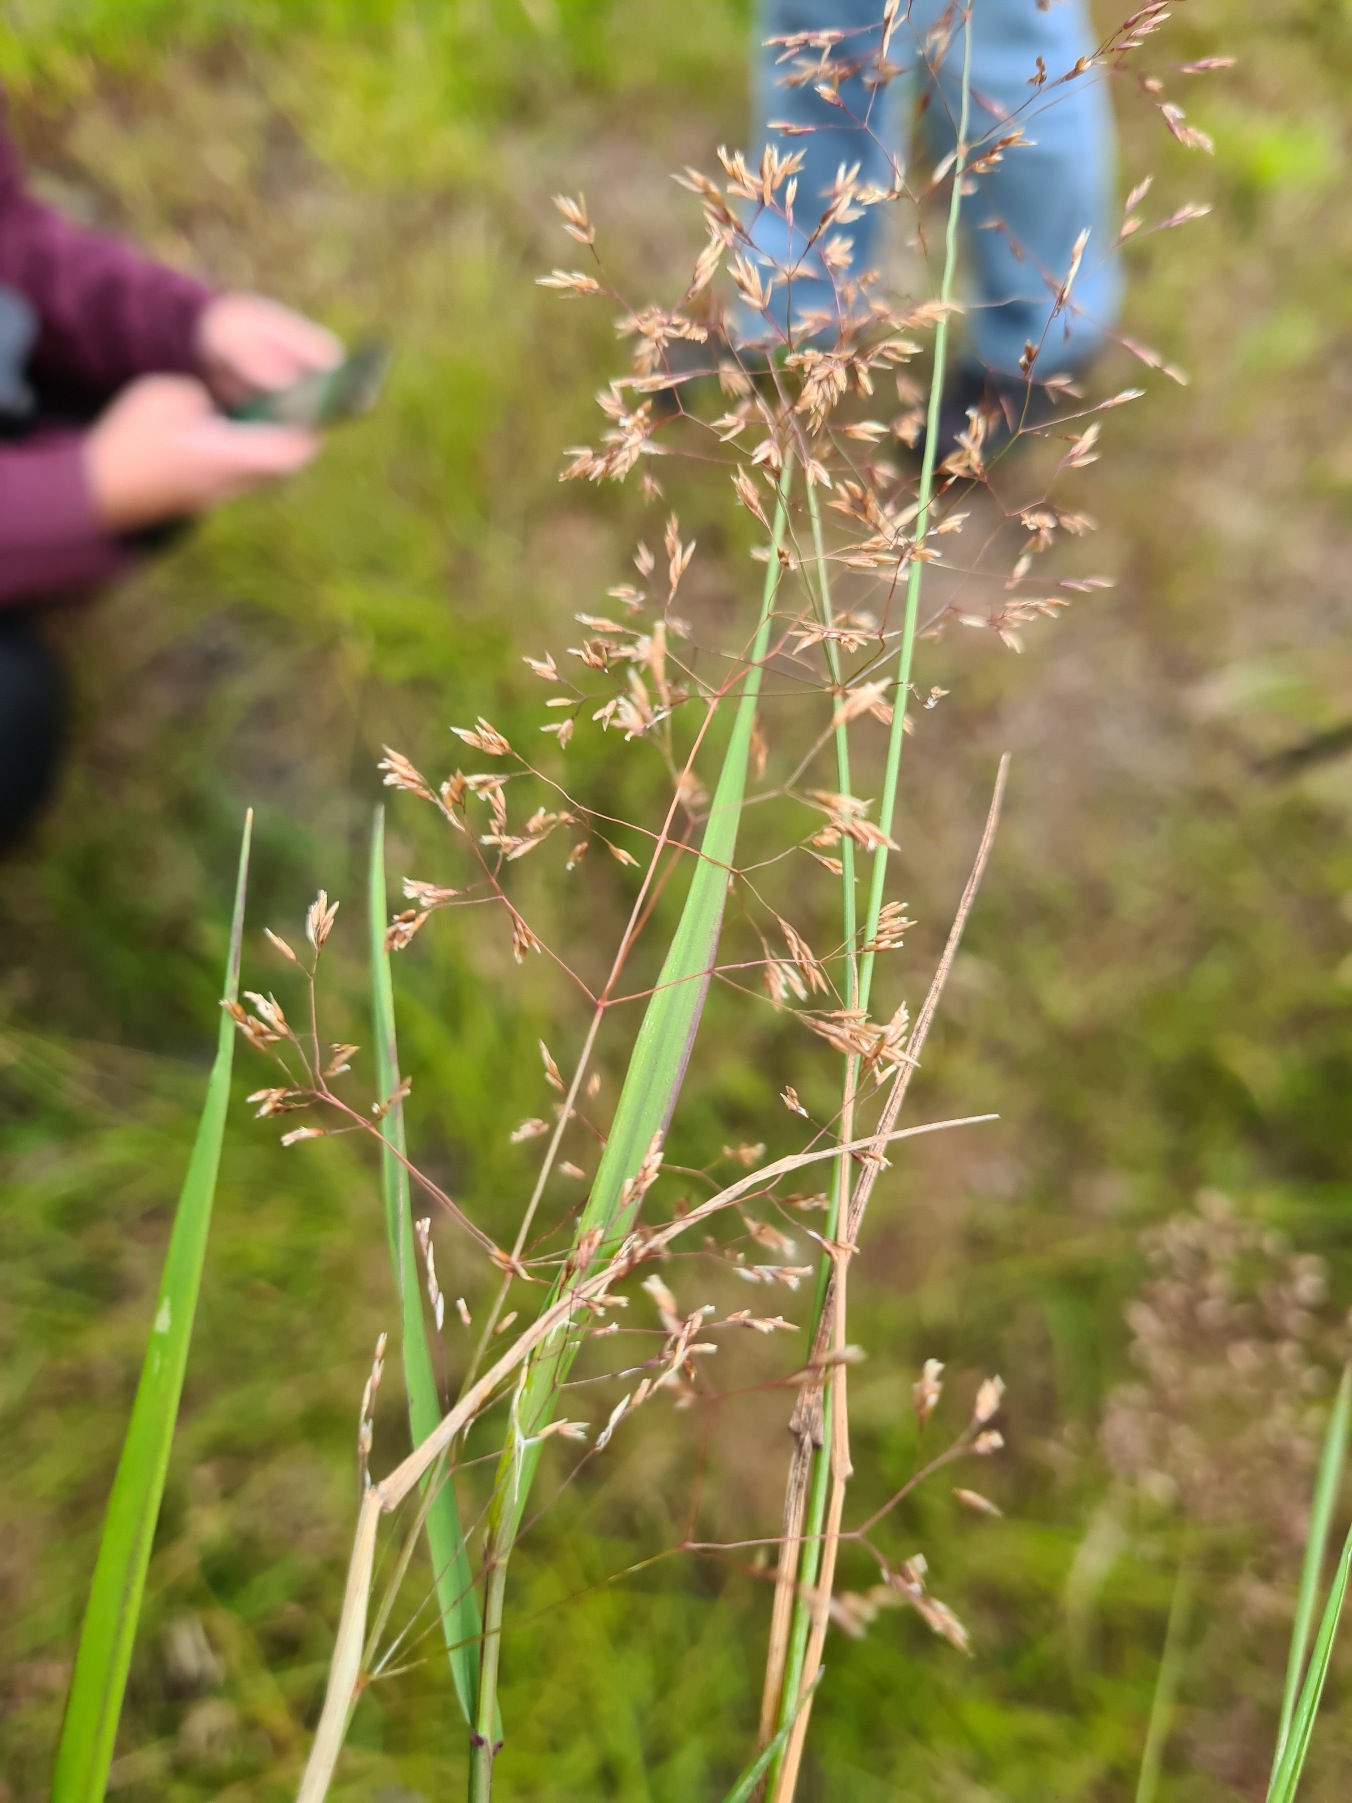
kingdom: Plantae
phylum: Tracheophyta
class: Liliopsida
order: Poales
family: Poaceae
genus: Agrostis
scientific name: Agrostis capillaris
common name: Almindelig hvene
